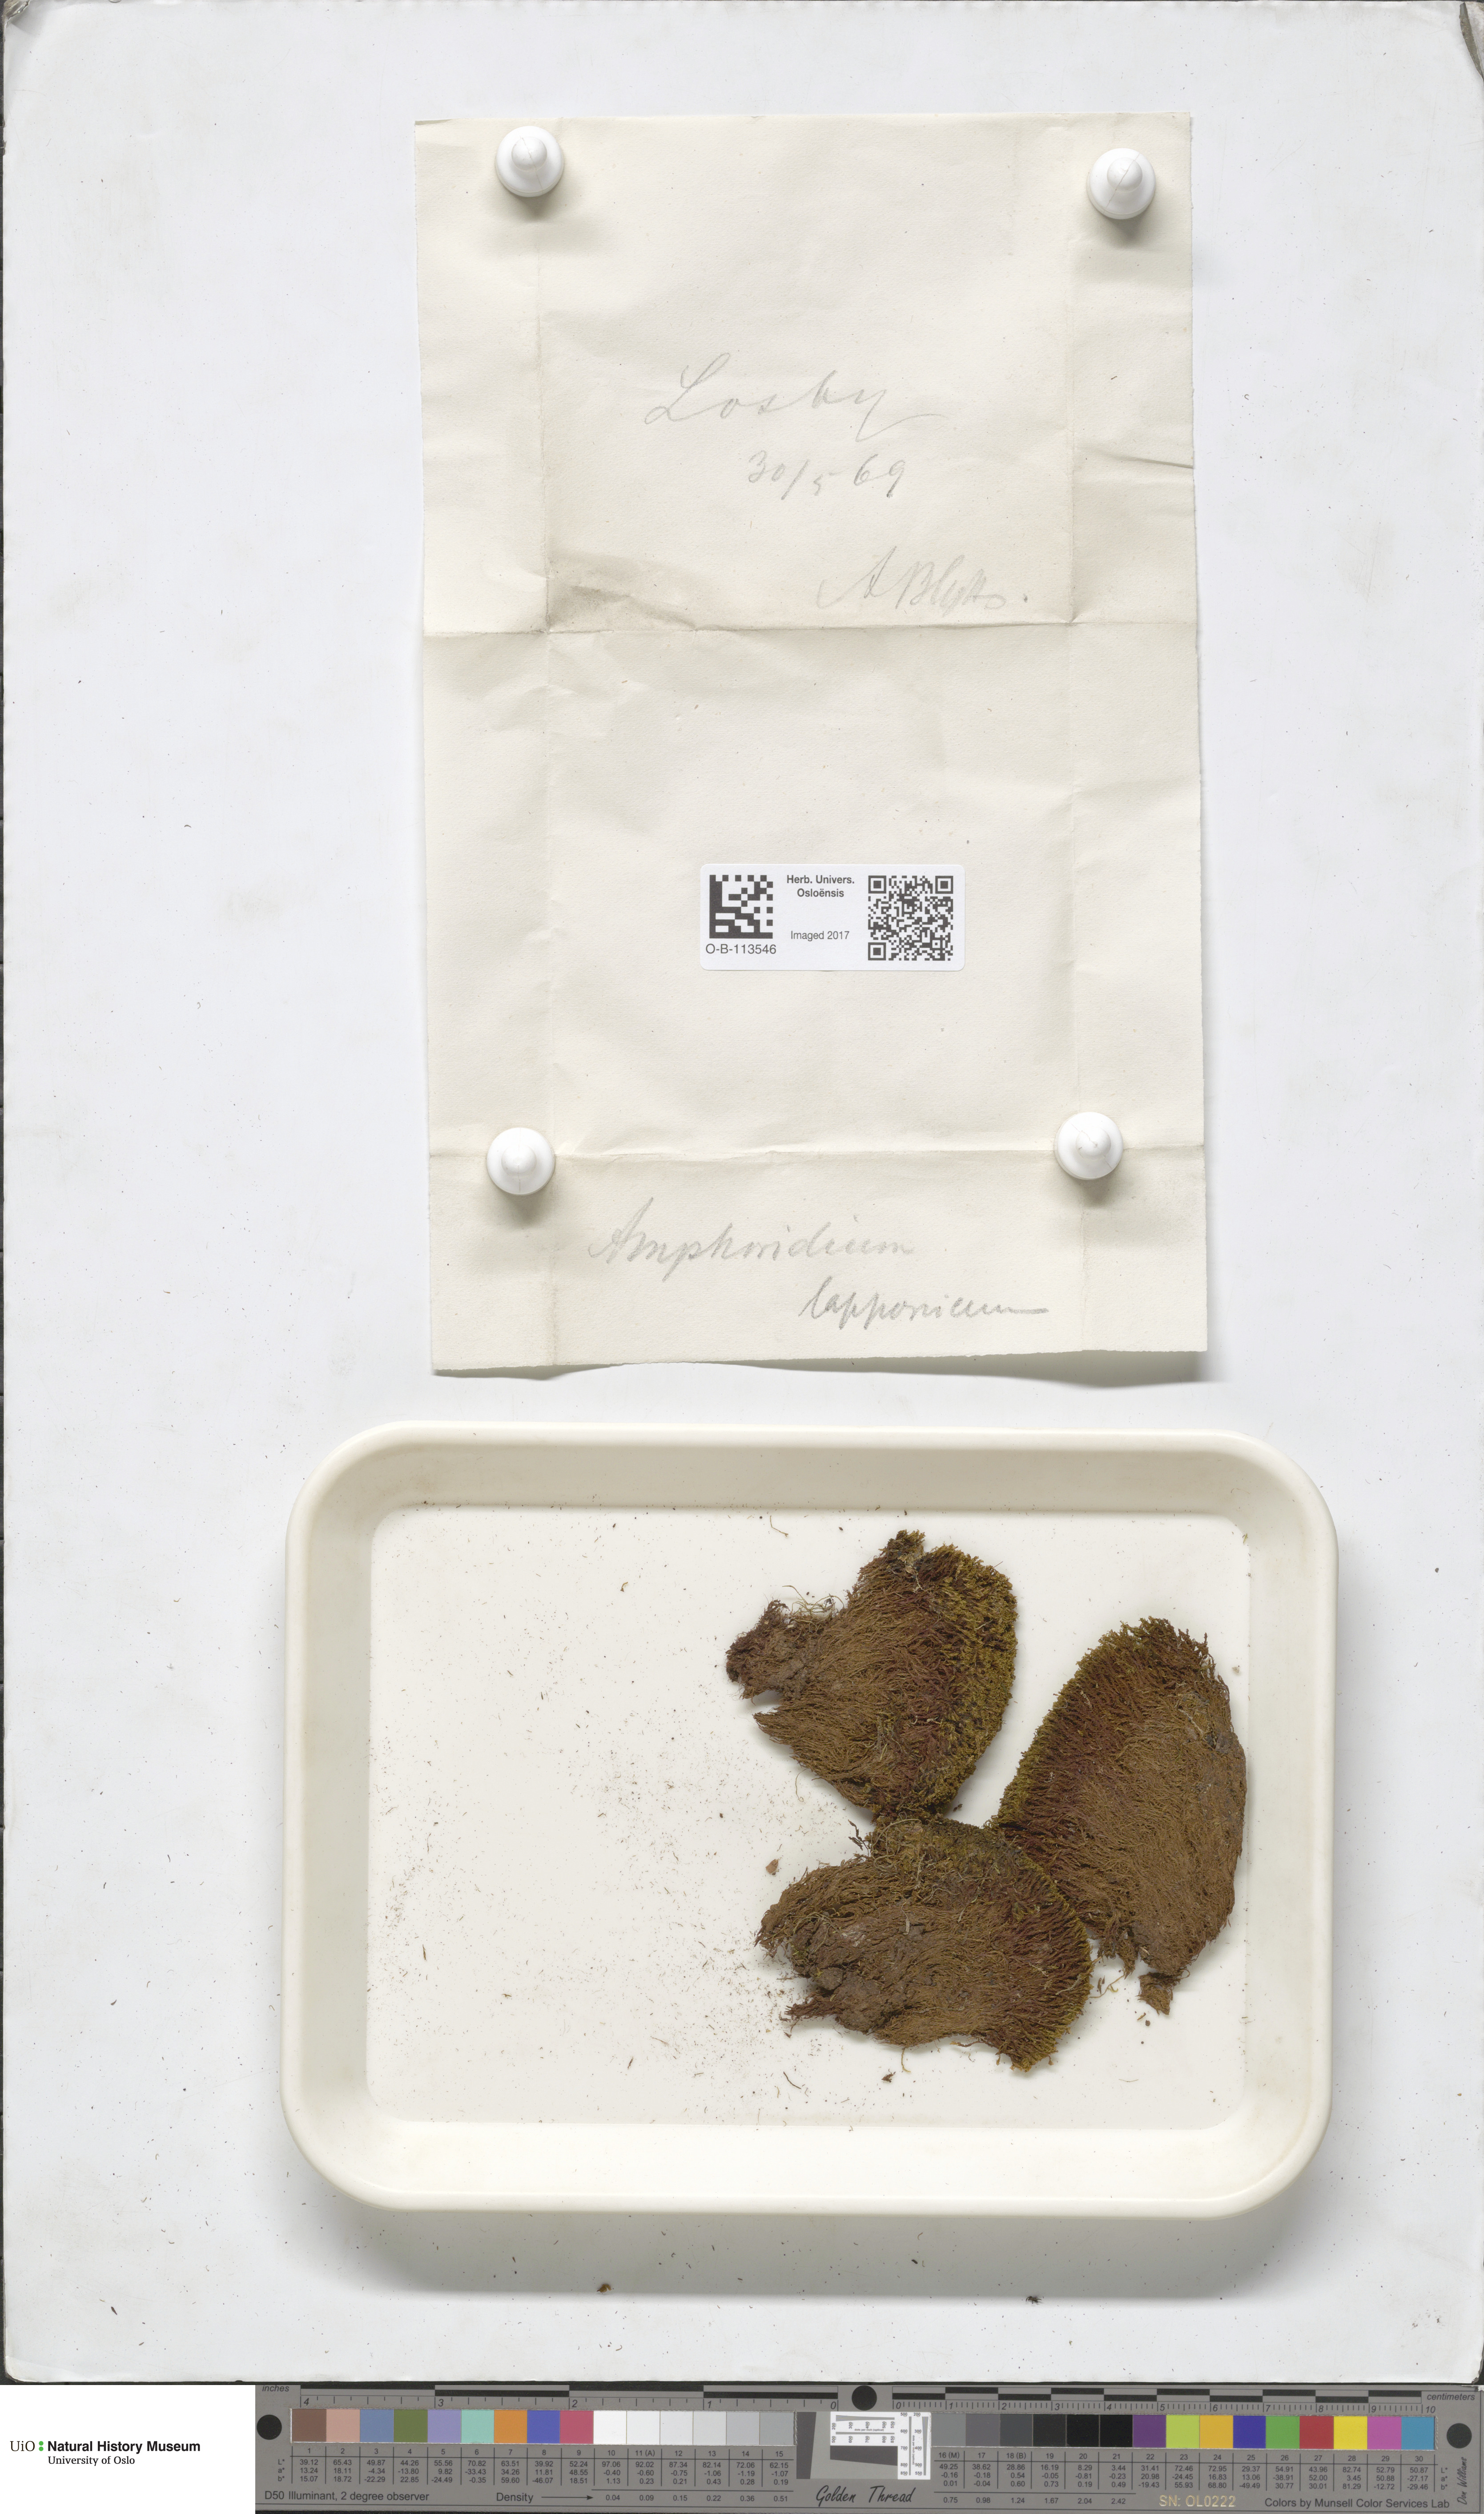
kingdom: Plantae
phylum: Bryophyta
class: Bryopsida
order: Dicranales
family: Amphidiaceae
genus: Amphidium
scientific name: Amphidium lapponicum
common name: Lapland yoke moss
